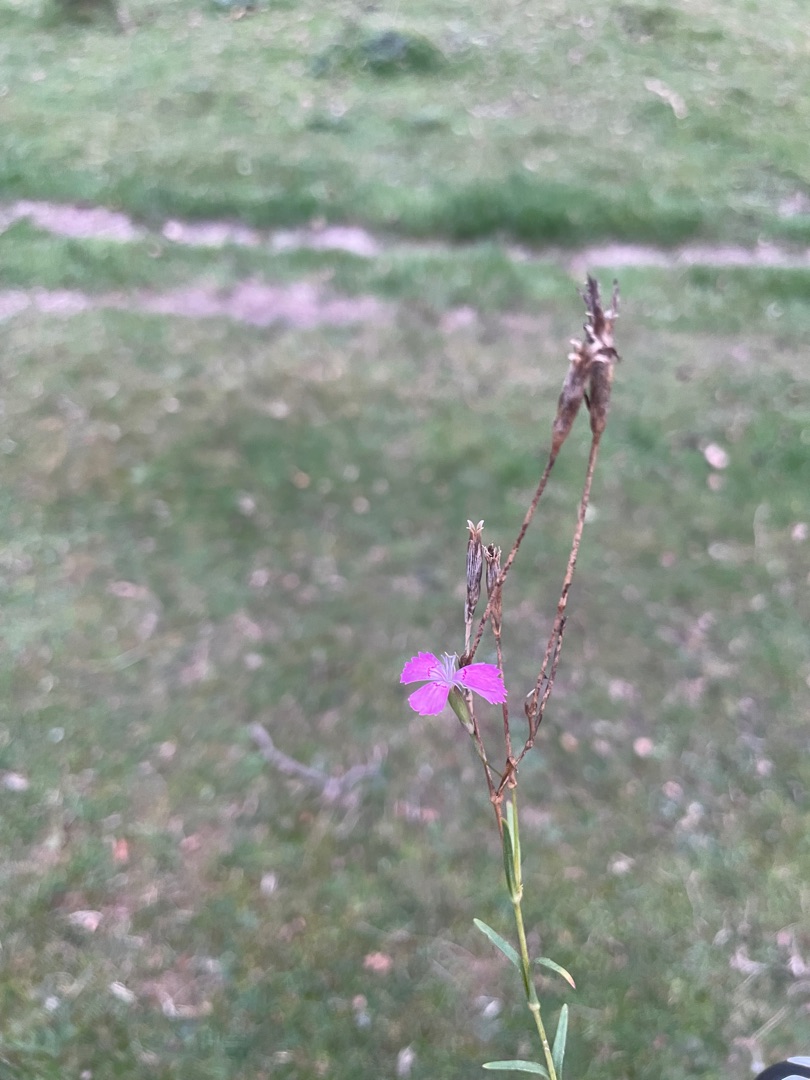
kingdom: Plantae
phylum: Tracheophyta
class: Magnoliopsida
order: Caryophyllales
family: Caryophyllaceae
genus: Dianthus
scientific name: Dianthus deltoides
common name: Bakke-nellike
